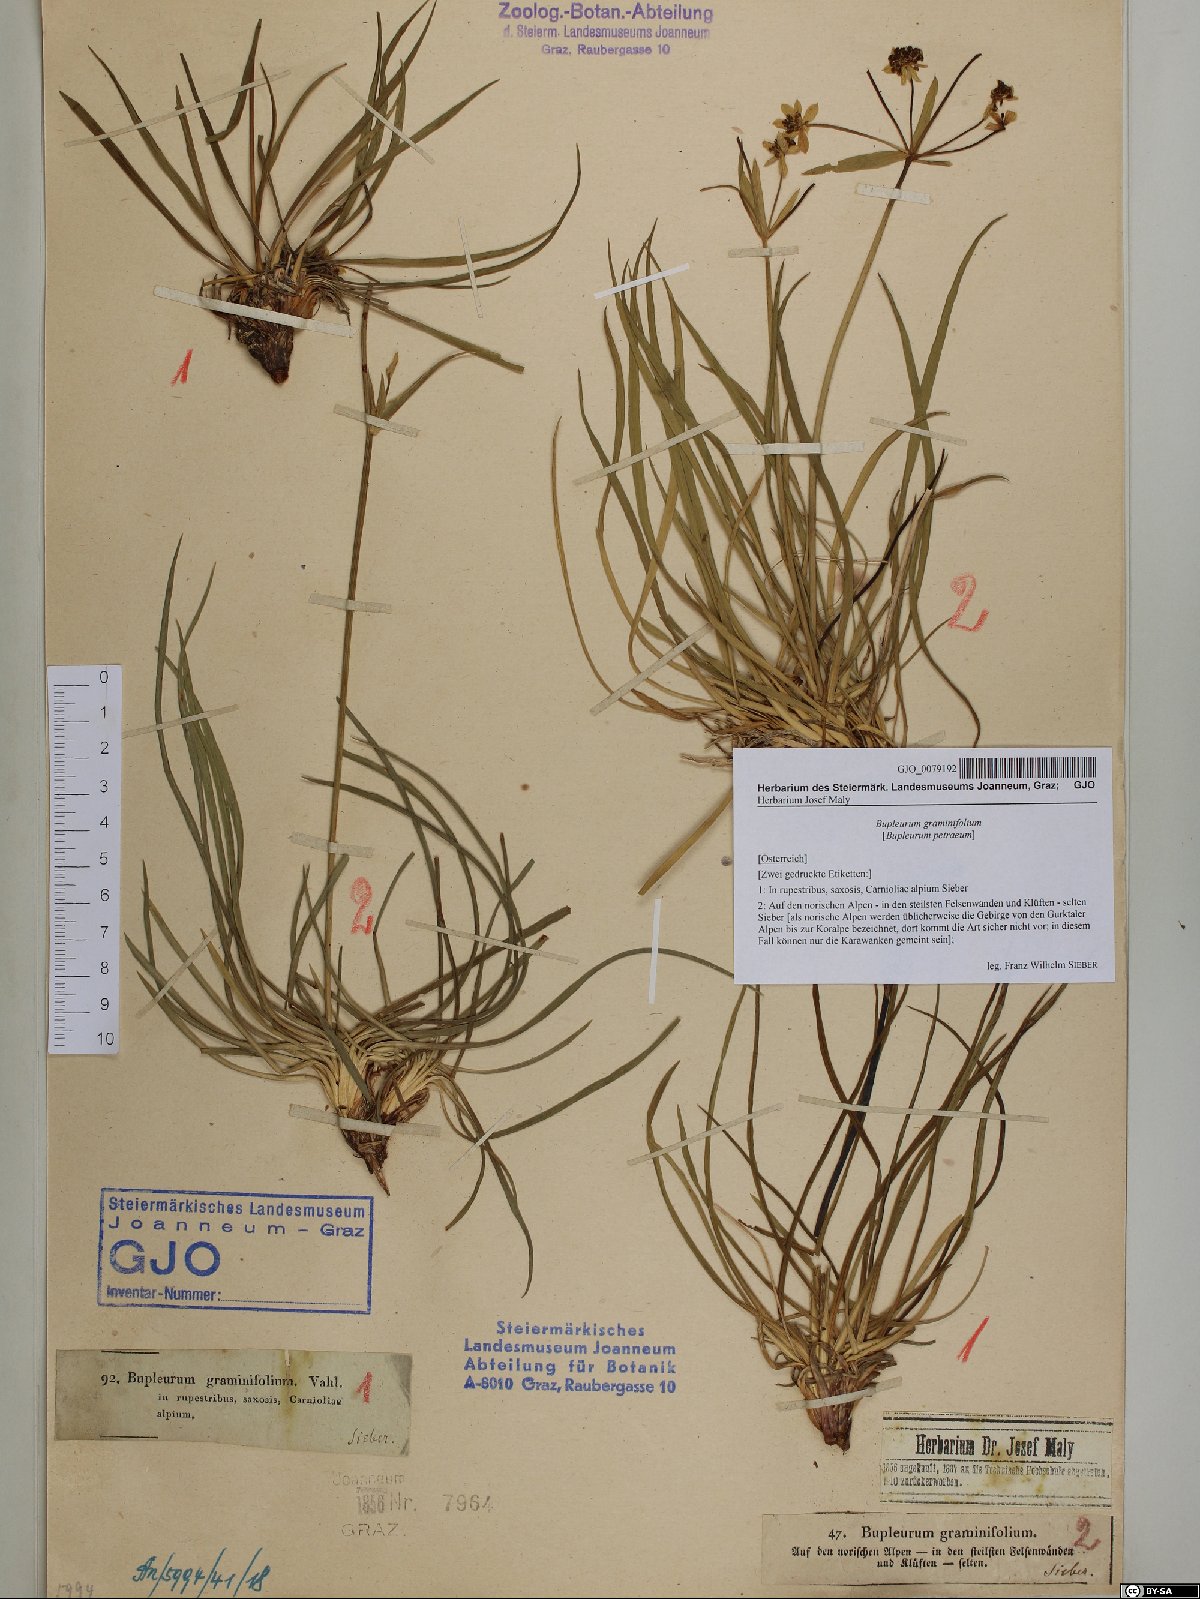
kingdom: Plantae
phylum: Tracheophyta
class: Magnoliopsida
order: Apiales
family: Apiaceae
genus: Bupleurum
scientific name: Bupleurum petraeum
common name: Rock hare's-ear
